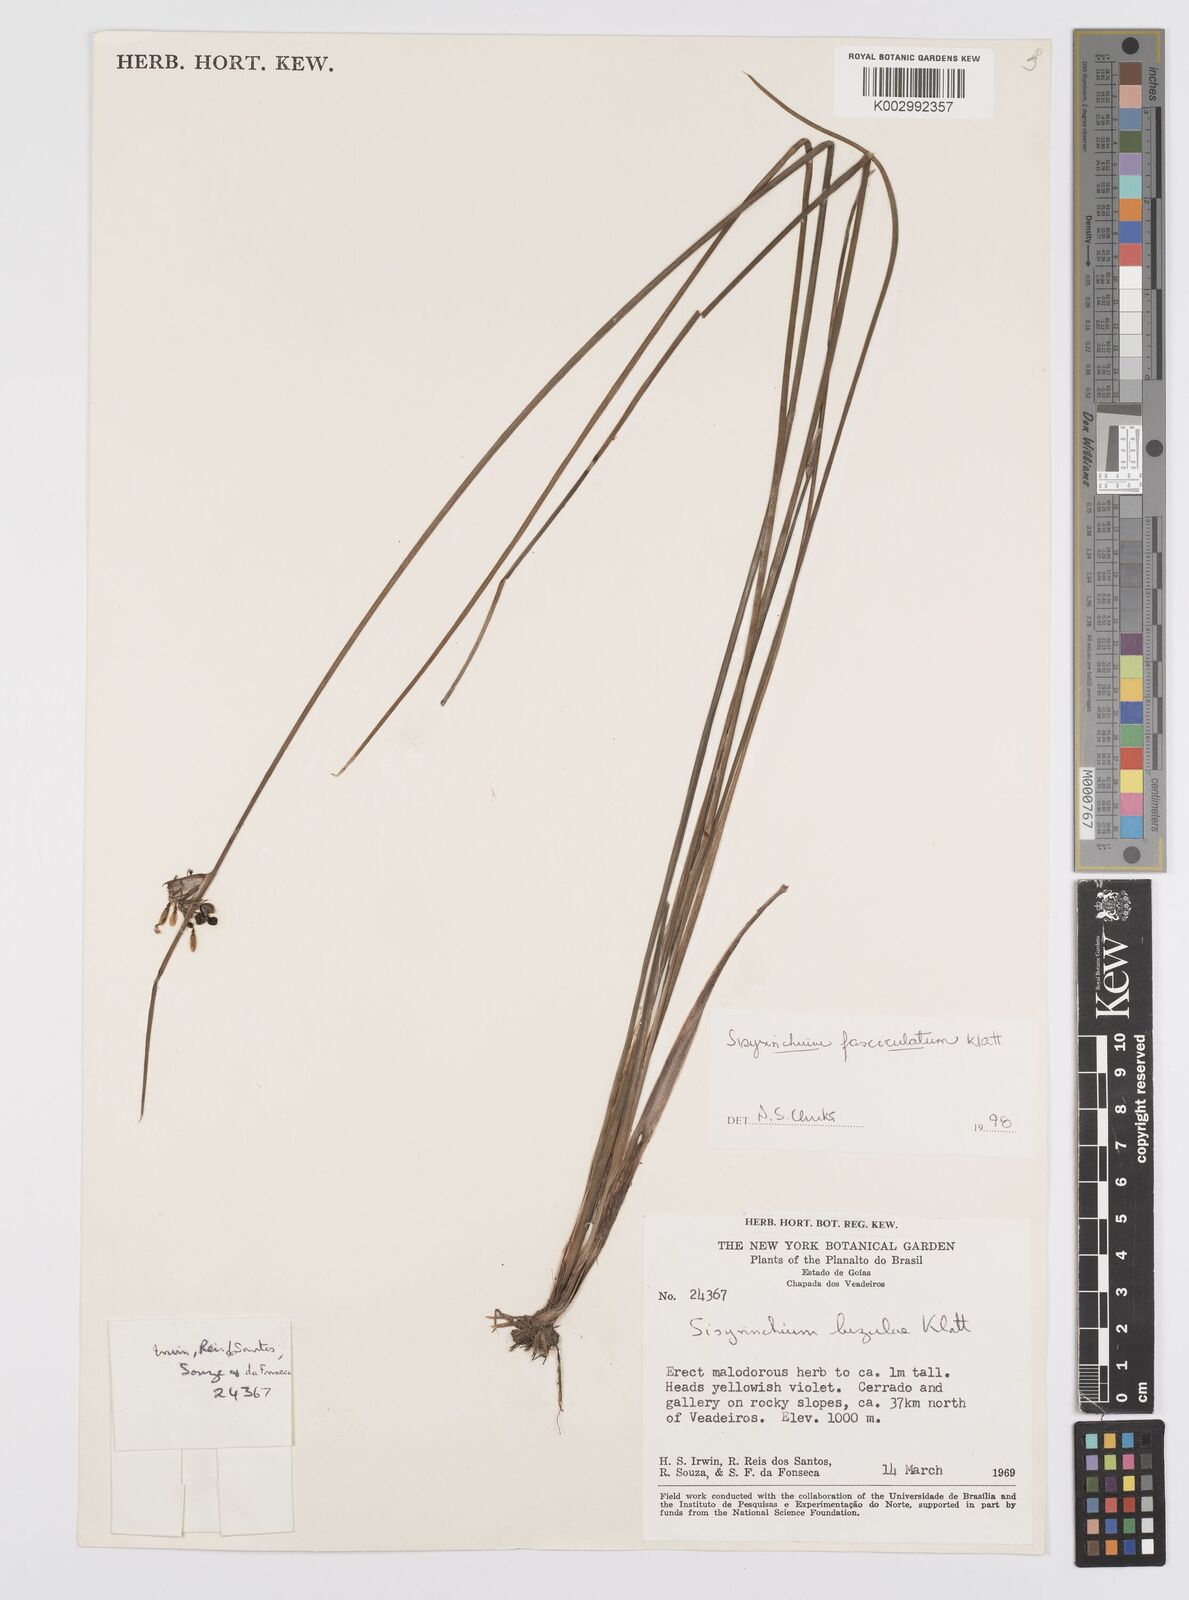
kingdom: Plantae
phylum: Tracheophyta
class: Liliopsida
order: Asparagales
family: Iridaceae
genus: Sisyrinchium
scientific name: Sisyrinchium fasciculatum
